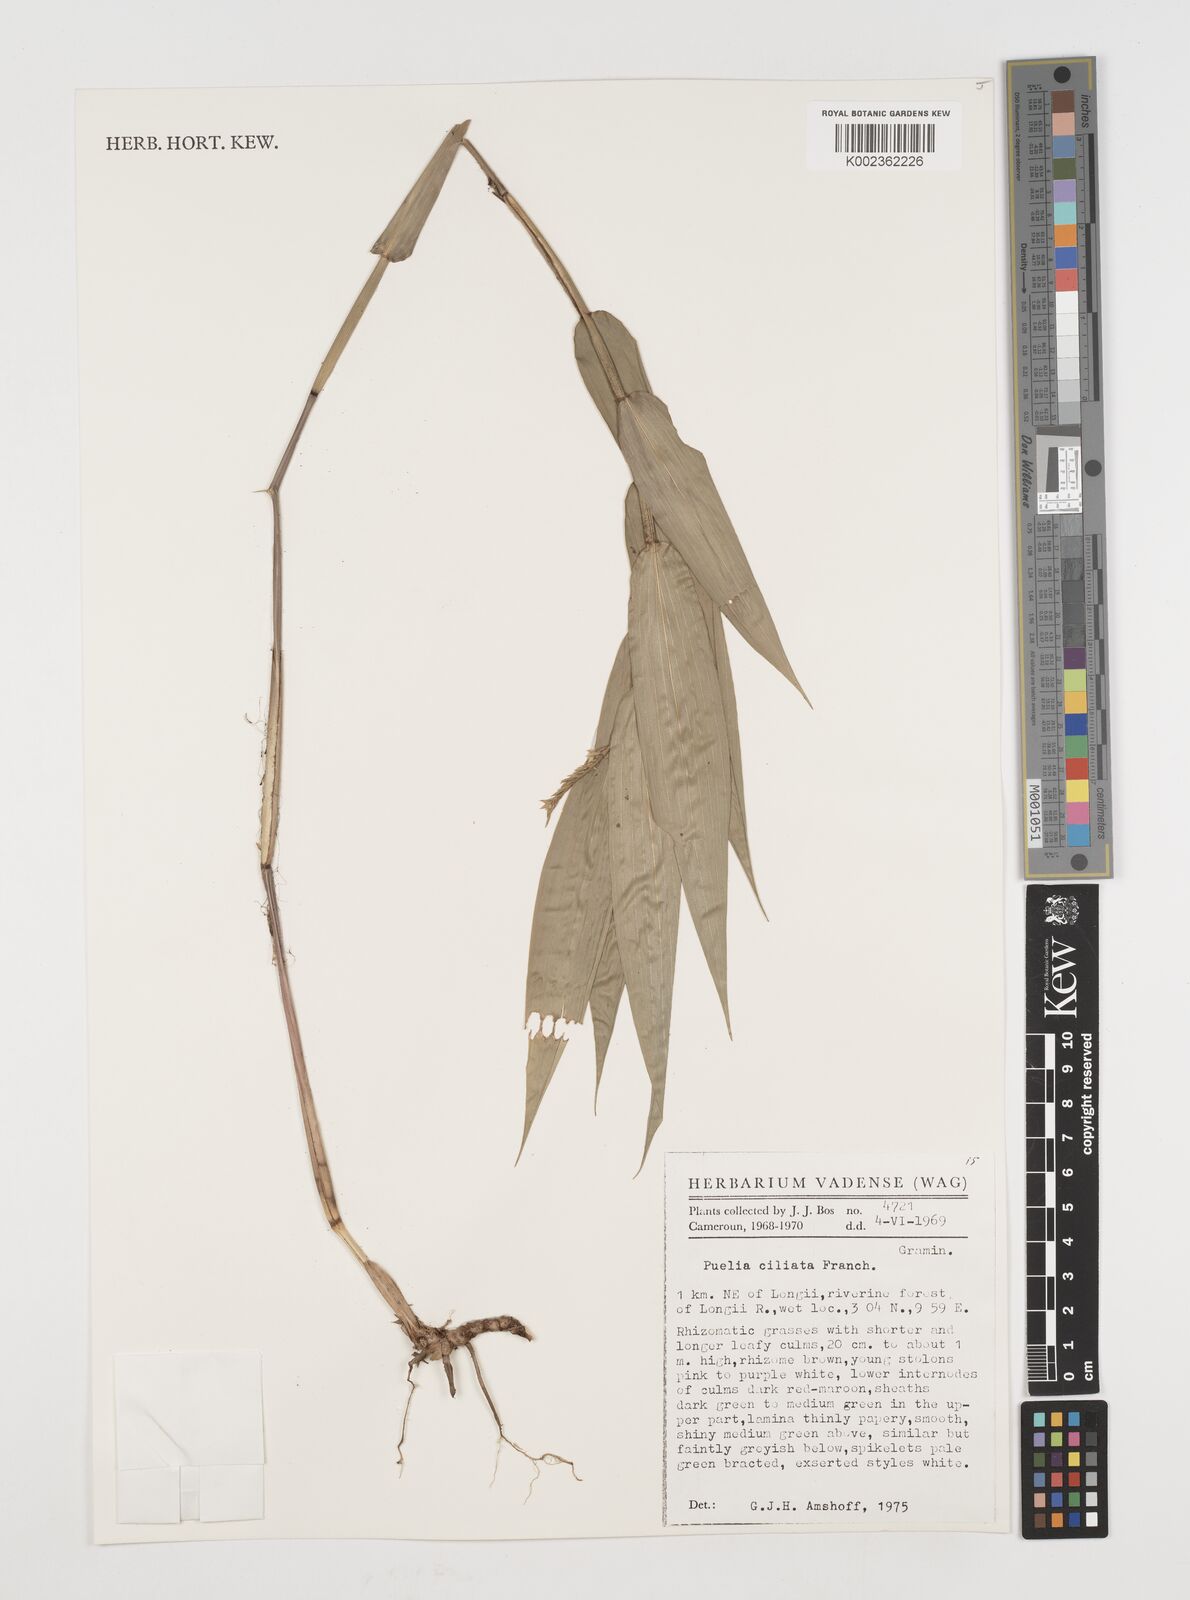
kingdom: Plantae
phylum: Tracheophyta
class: Liliopsida
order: Poales
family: Poaceae
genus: Puelia
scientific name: Puelia ciliata
